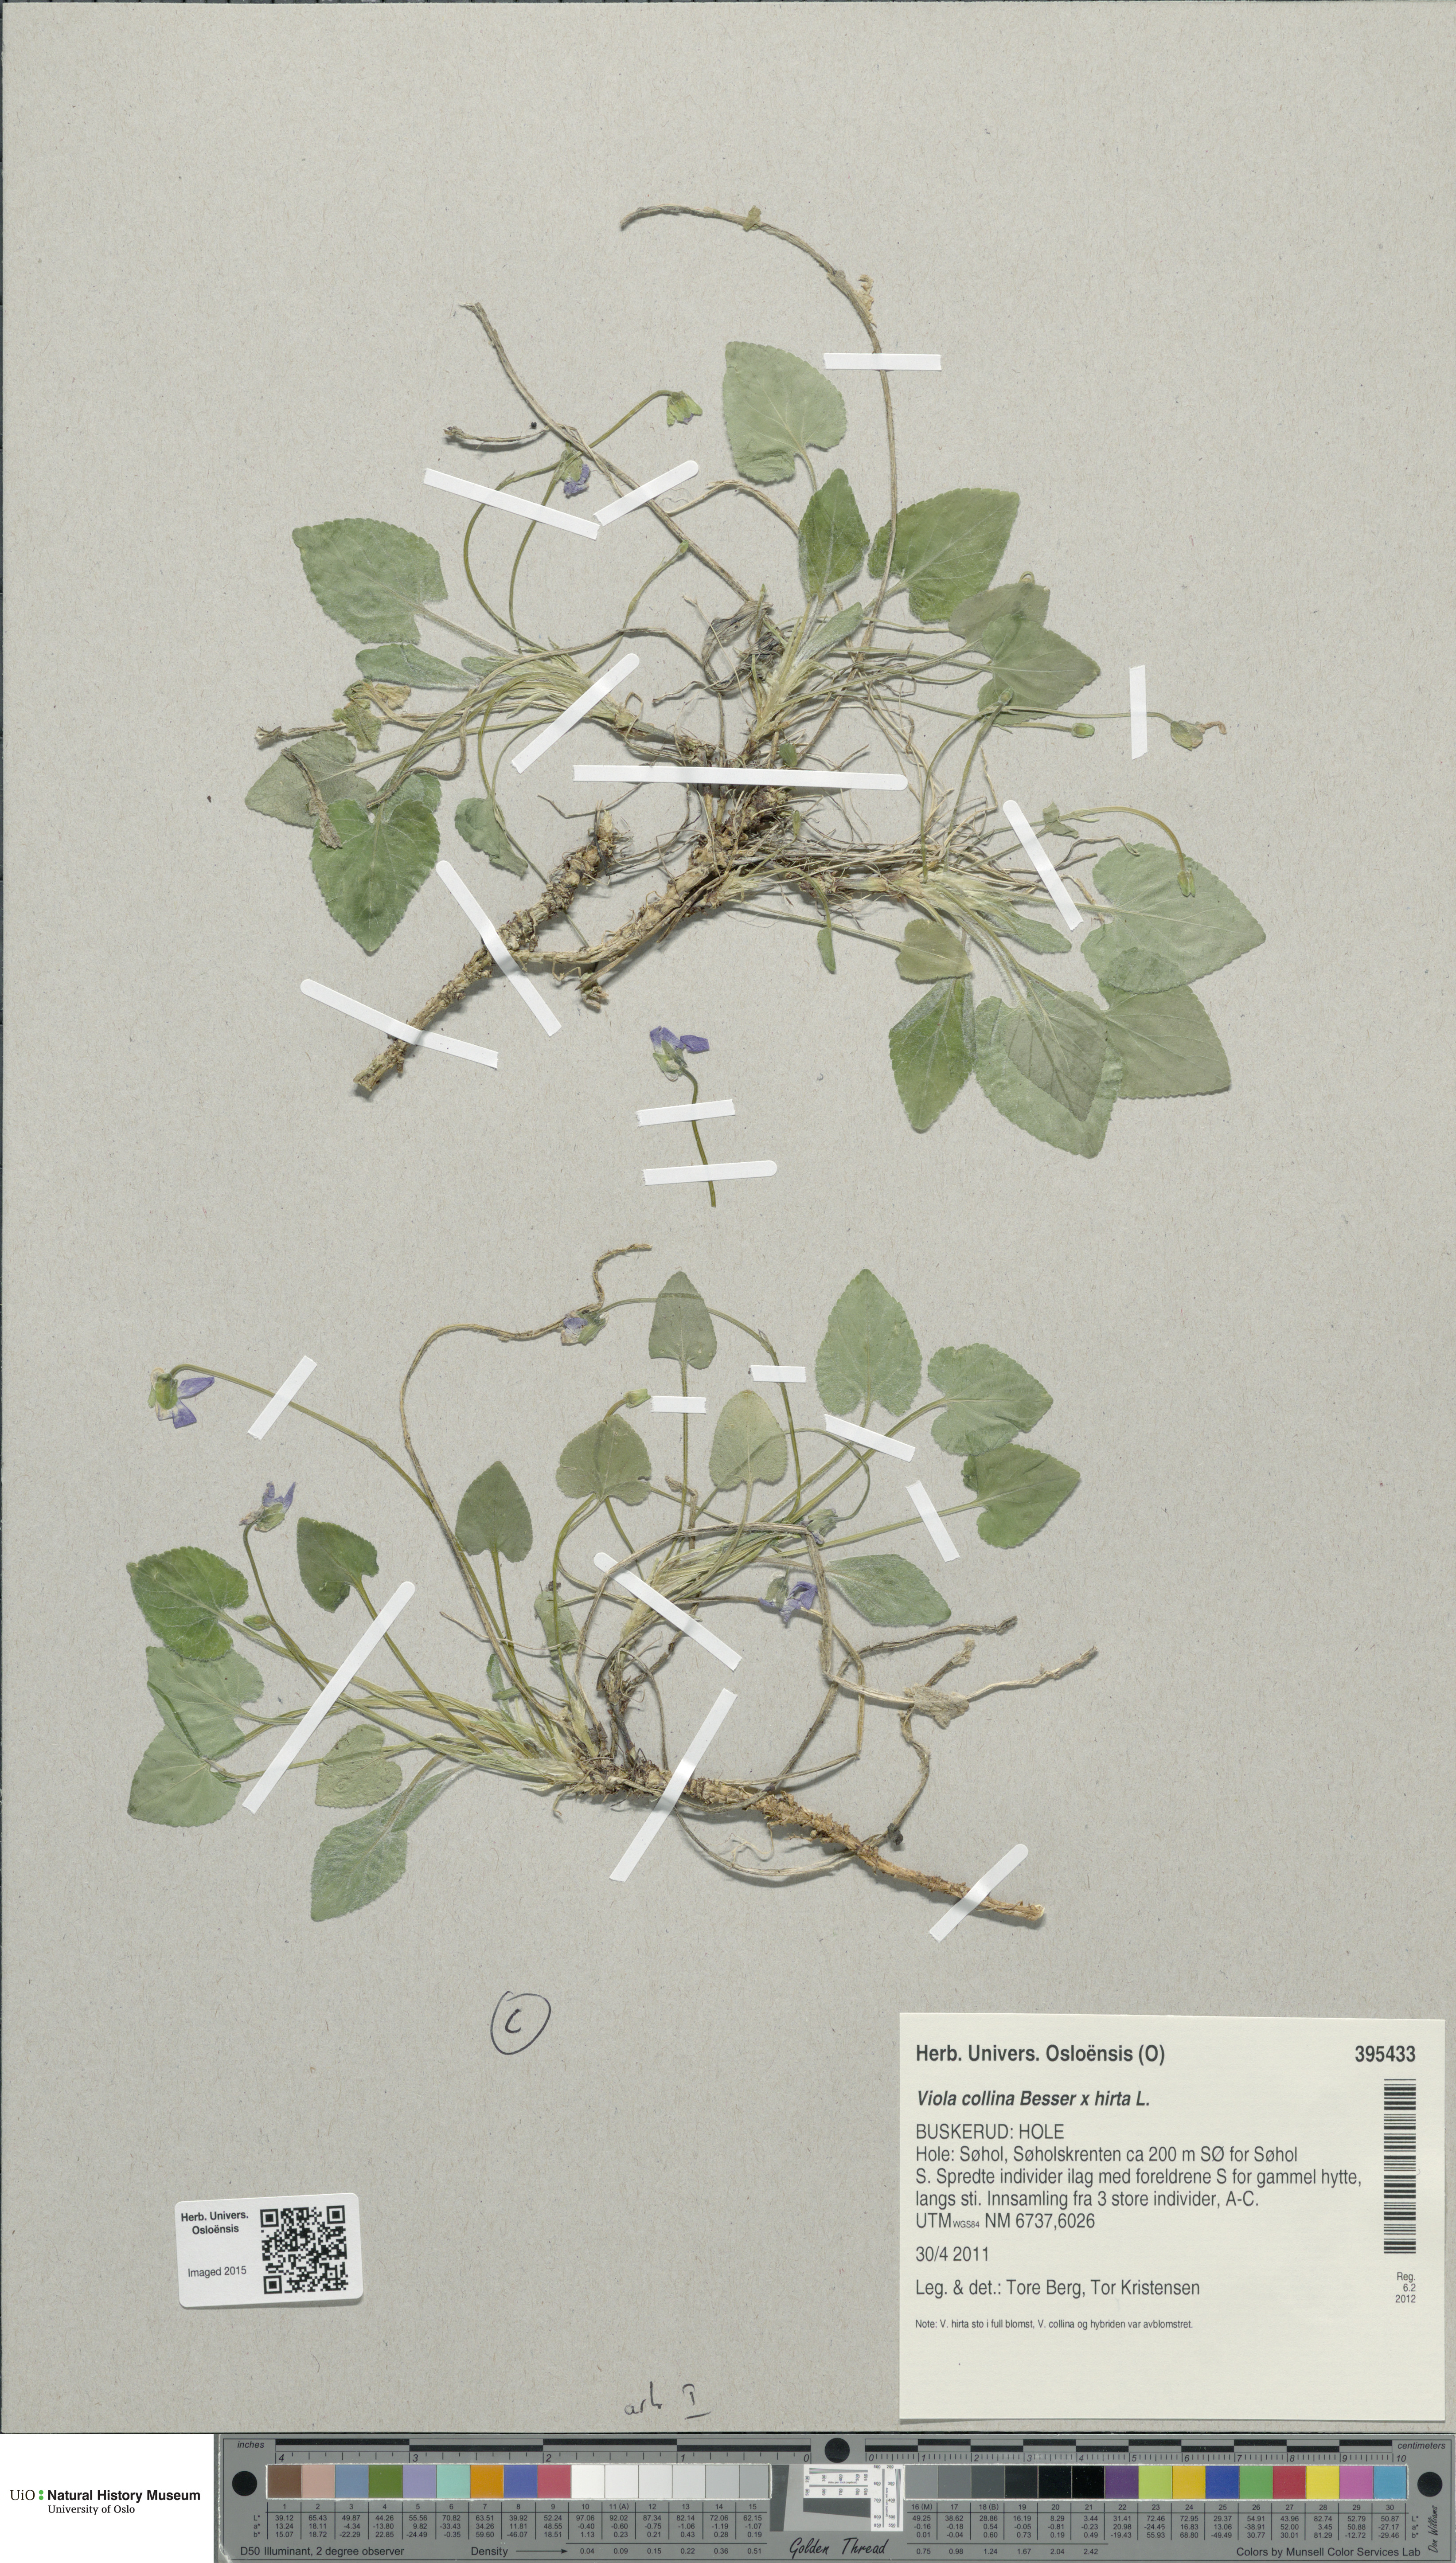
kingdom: Plantae
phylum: Tracheophyta
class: Magnoliopsida
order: Malpighiales
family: Violaceae
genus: Viola
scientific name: Viola
